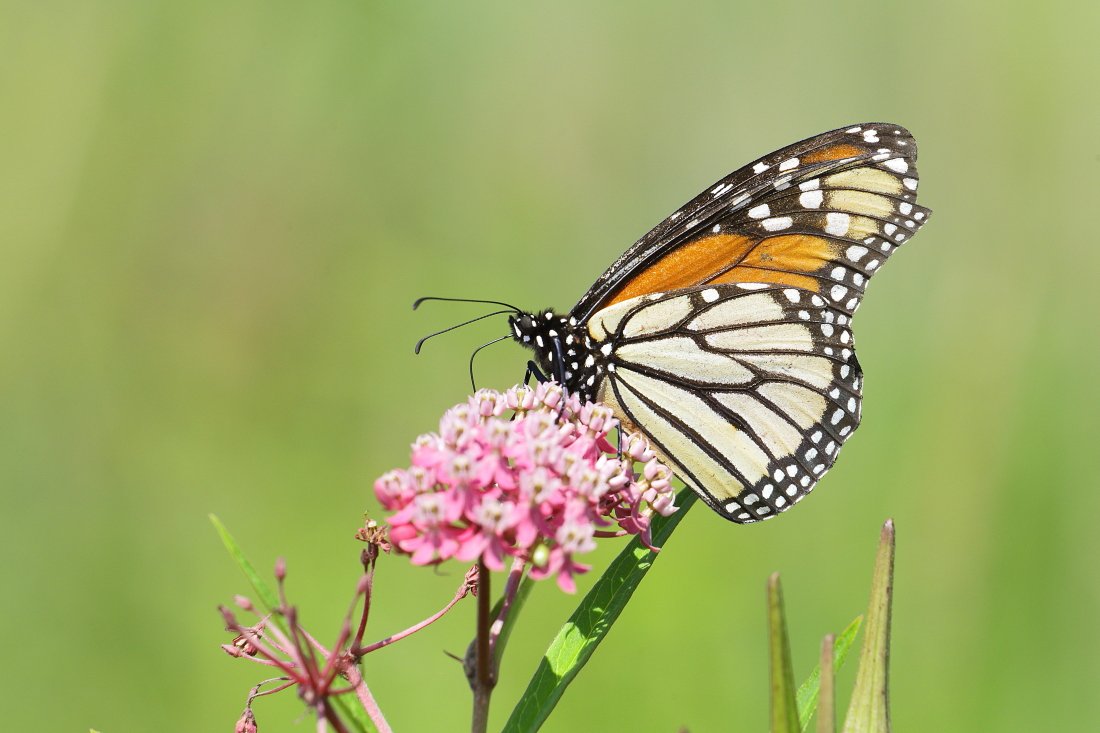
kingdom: Animalia
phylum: Arthropoda
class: Insecta
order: Lepidoptera
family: Nymphalidae
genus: Danaus
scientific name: Danaus plexippus
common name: Monarch
